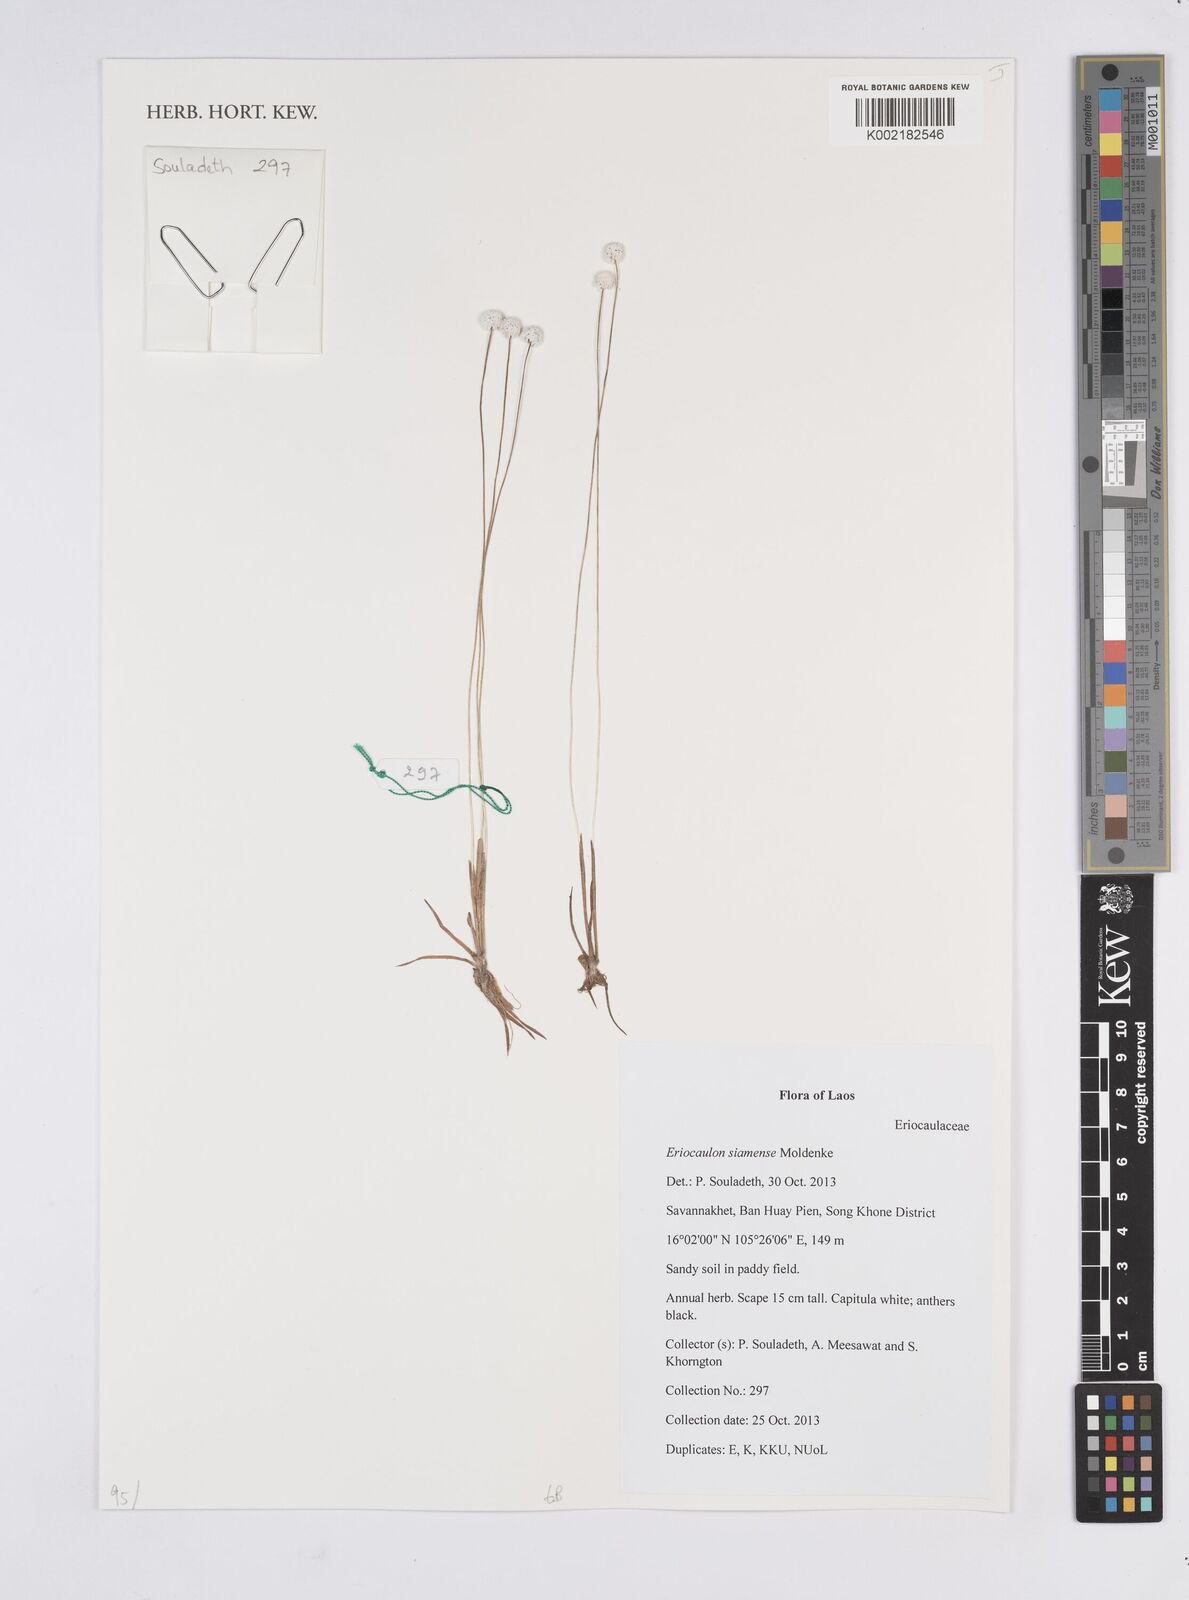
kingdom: Plantae
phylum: Tracheophyta
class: Liliopsida
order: Poales
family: Eriocaulaceae
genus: Eriocaulon
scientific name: Eriocaulon siamense
